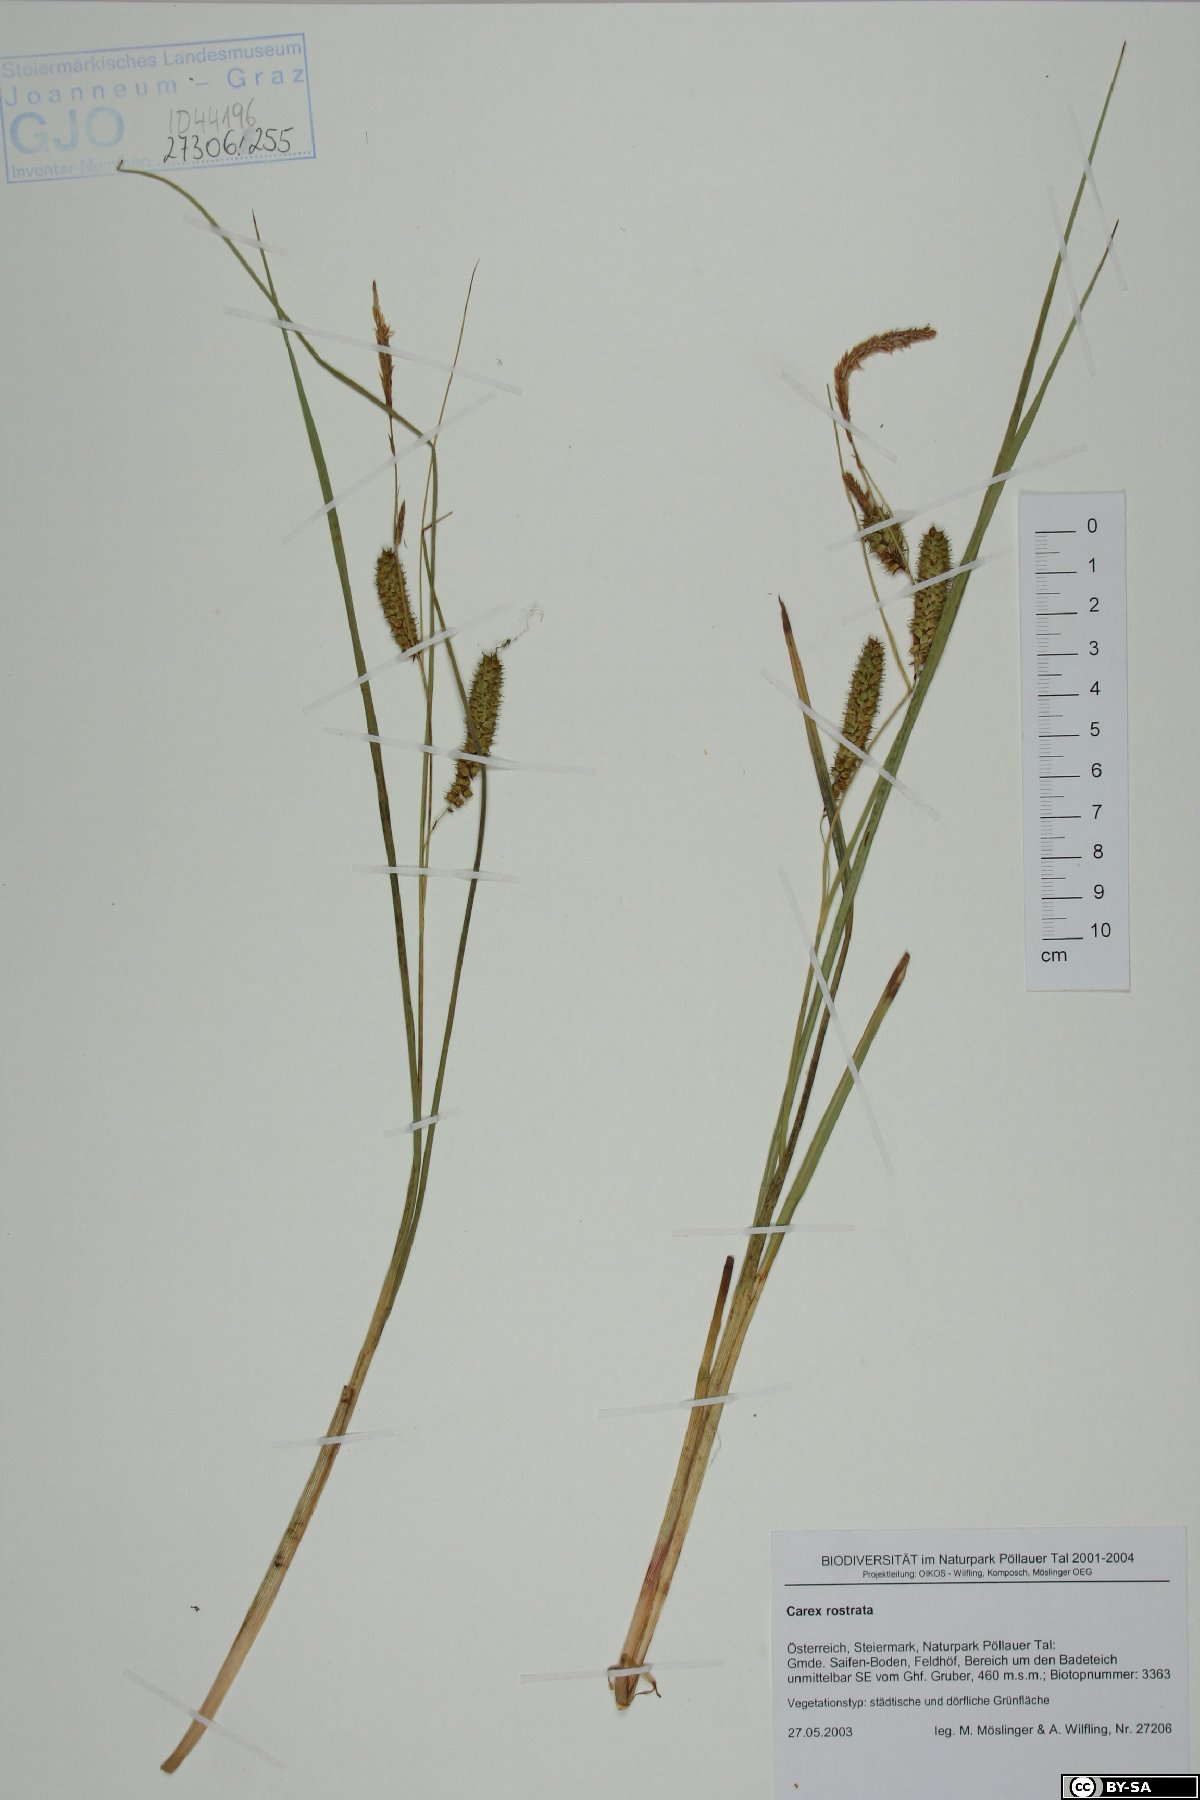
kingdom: Plantae
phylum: Tracheophyta
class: Liliopsida
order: Poales
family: Cyperaceae
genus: Carex
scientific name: Carex rostrata
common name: Bottle sedge
